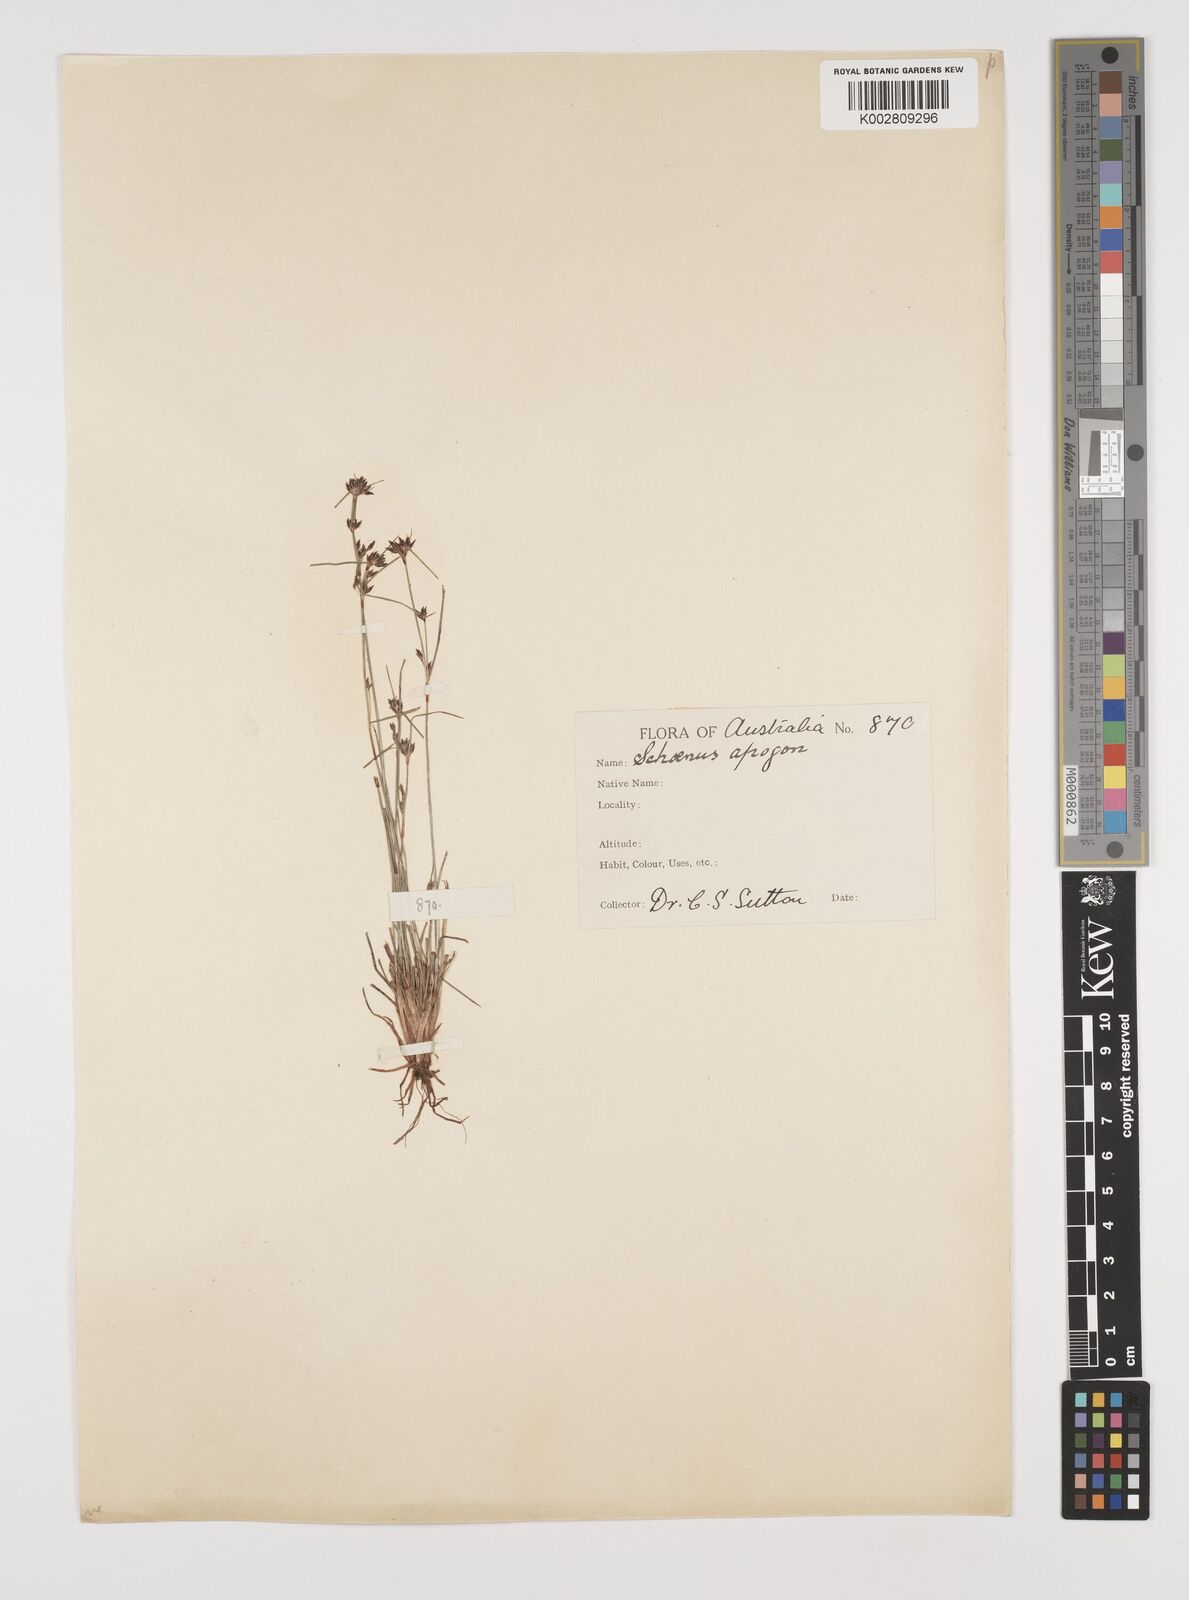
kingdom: Plantae
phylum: Tracheophyta
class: Liliopsida
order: Poales
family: Cyperaceae
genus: Schoenus
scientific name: Schoenus apogon
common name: Smooth bogrush
